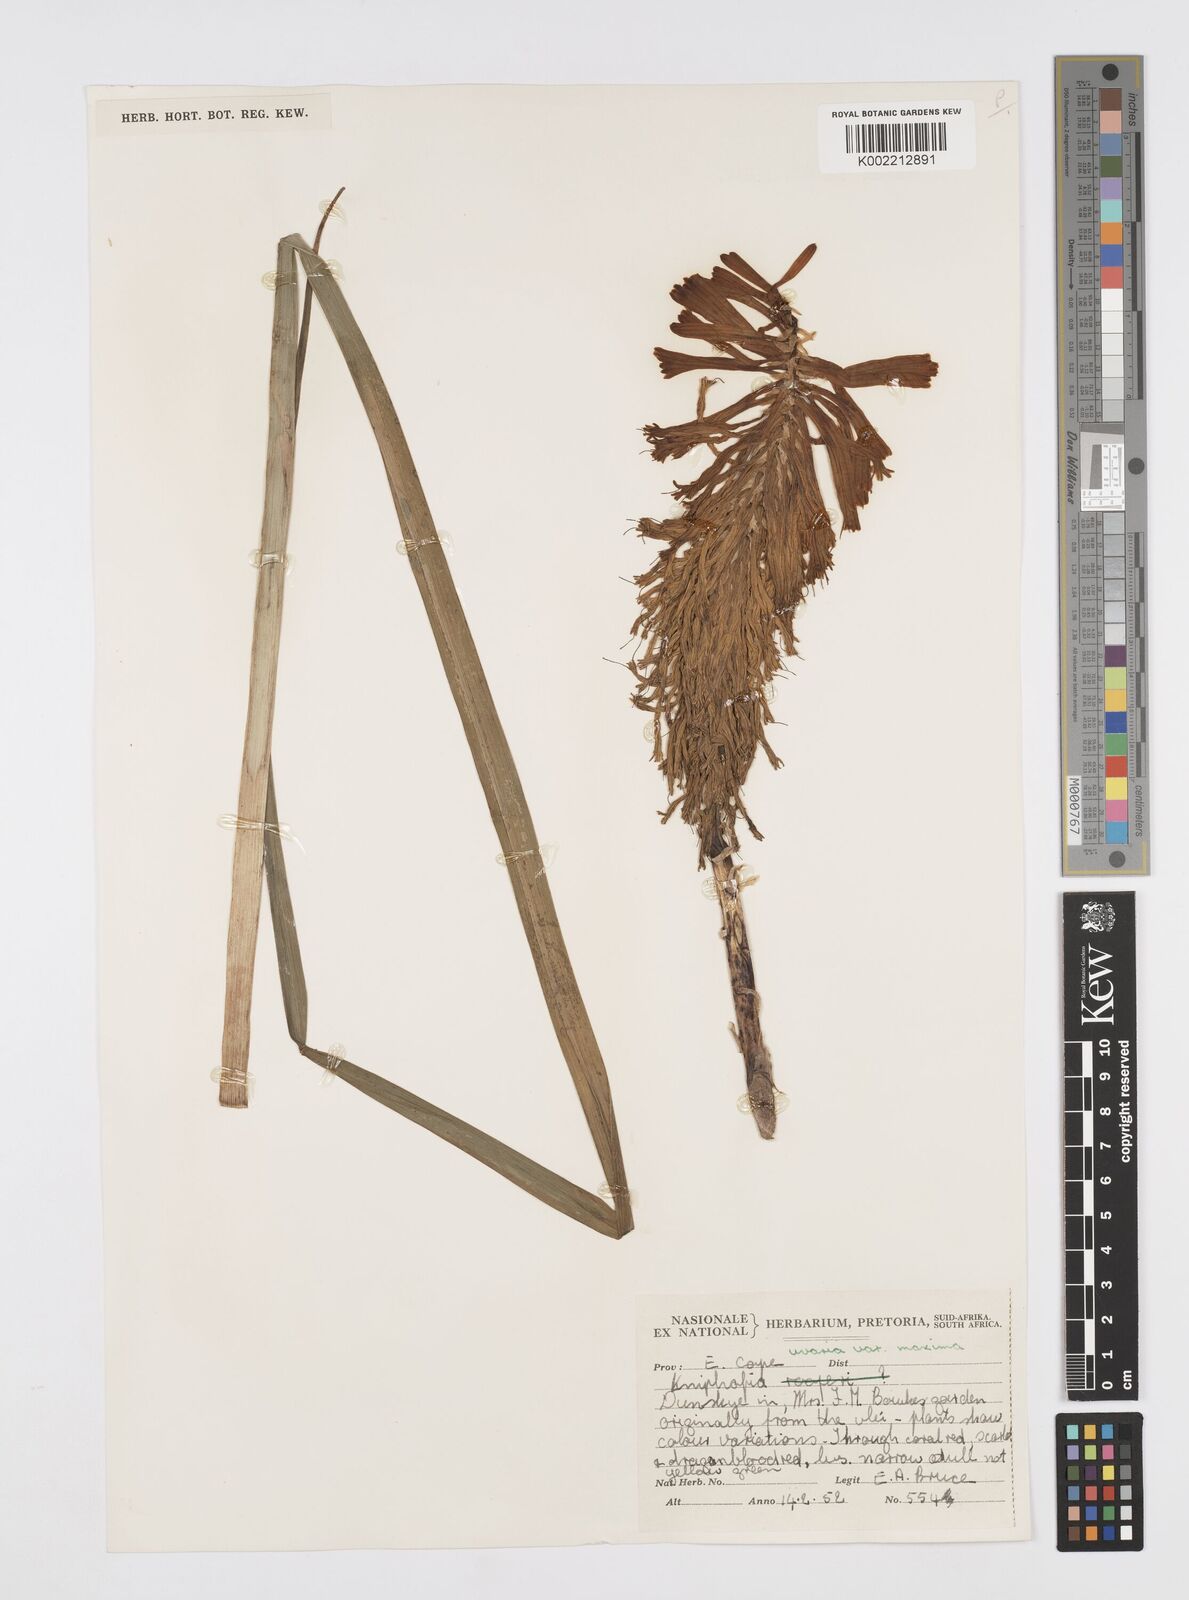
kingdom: Plantae
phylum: Tracheophyta
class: Liliopsida
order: Asparagales
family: Asphodelaceae
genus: Kniphofia
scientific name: Kniphofia uvaria
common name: Red-hot-poker
